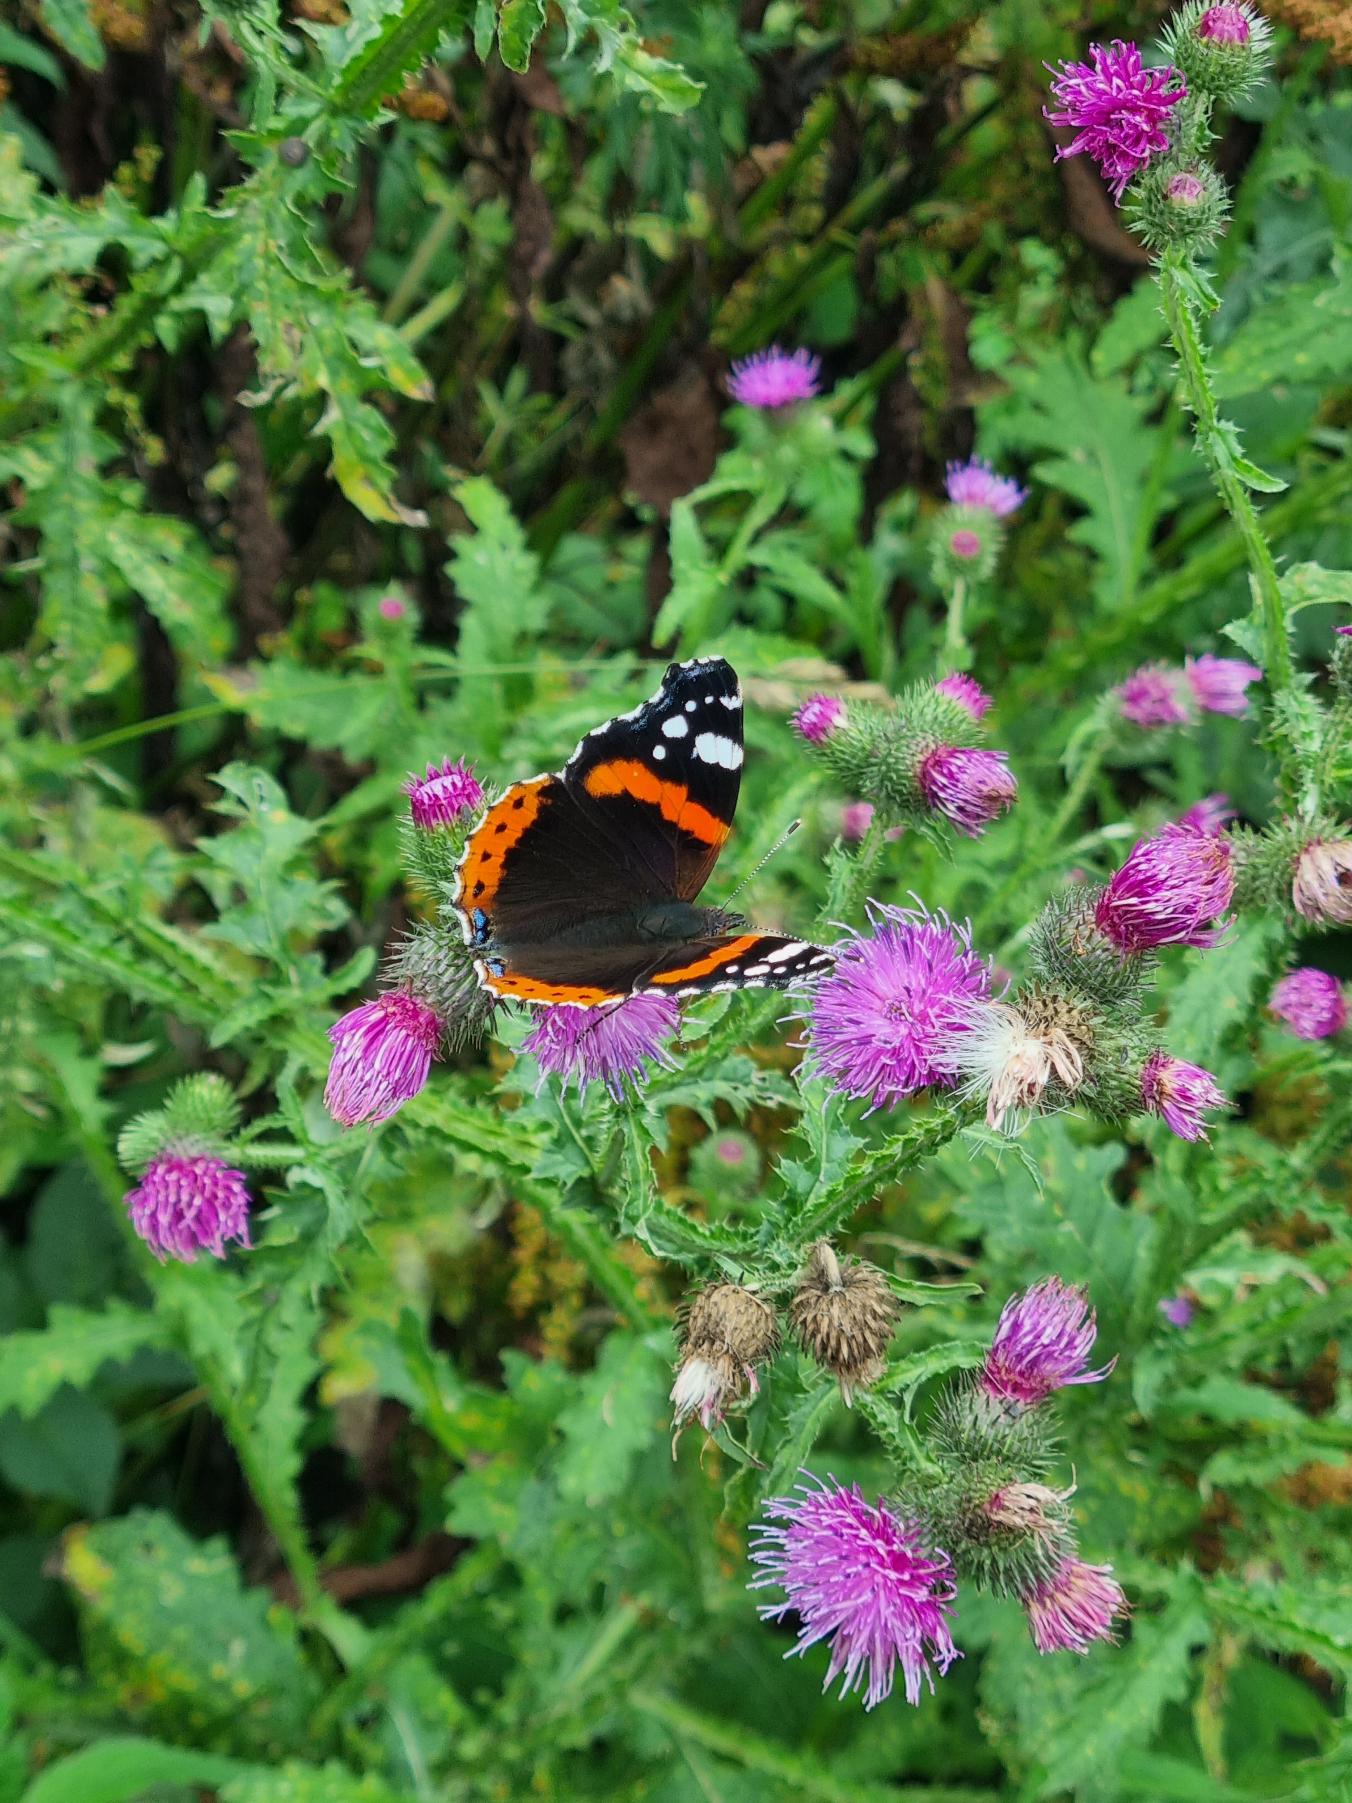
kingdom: Animalia
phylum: Arthropoda
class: Insecta
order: Lepidoptera
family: Nymphalidae
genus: Vanessa
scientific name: Vanessa atalanta
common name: Admiral
